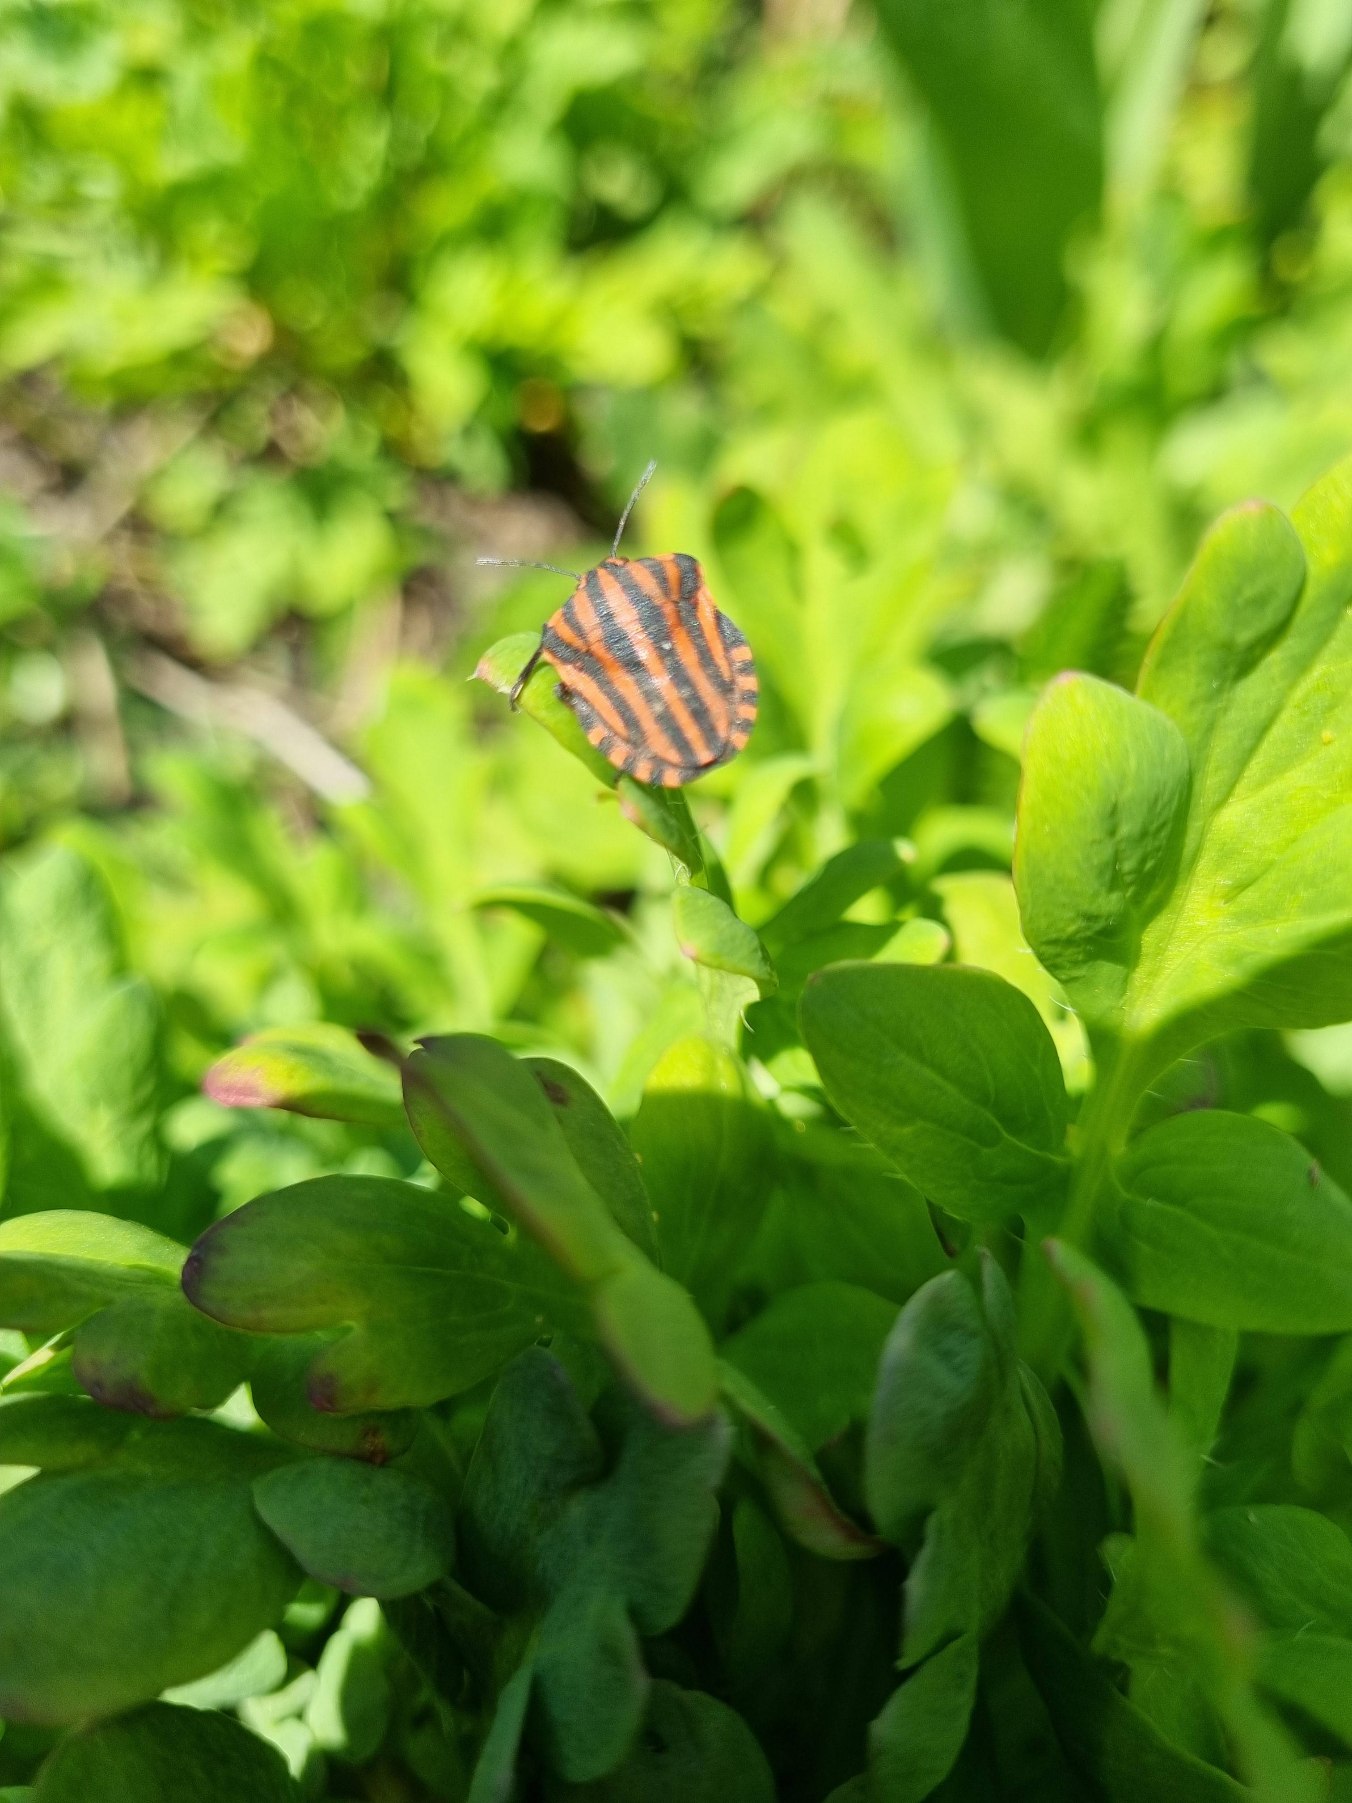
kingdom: Animalia
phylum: Arthropoda
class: Insecta
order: Hemiptera
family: Pentatomidae
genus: Graphosoma
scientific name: Graphosoma italicum
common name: Stribetæge
